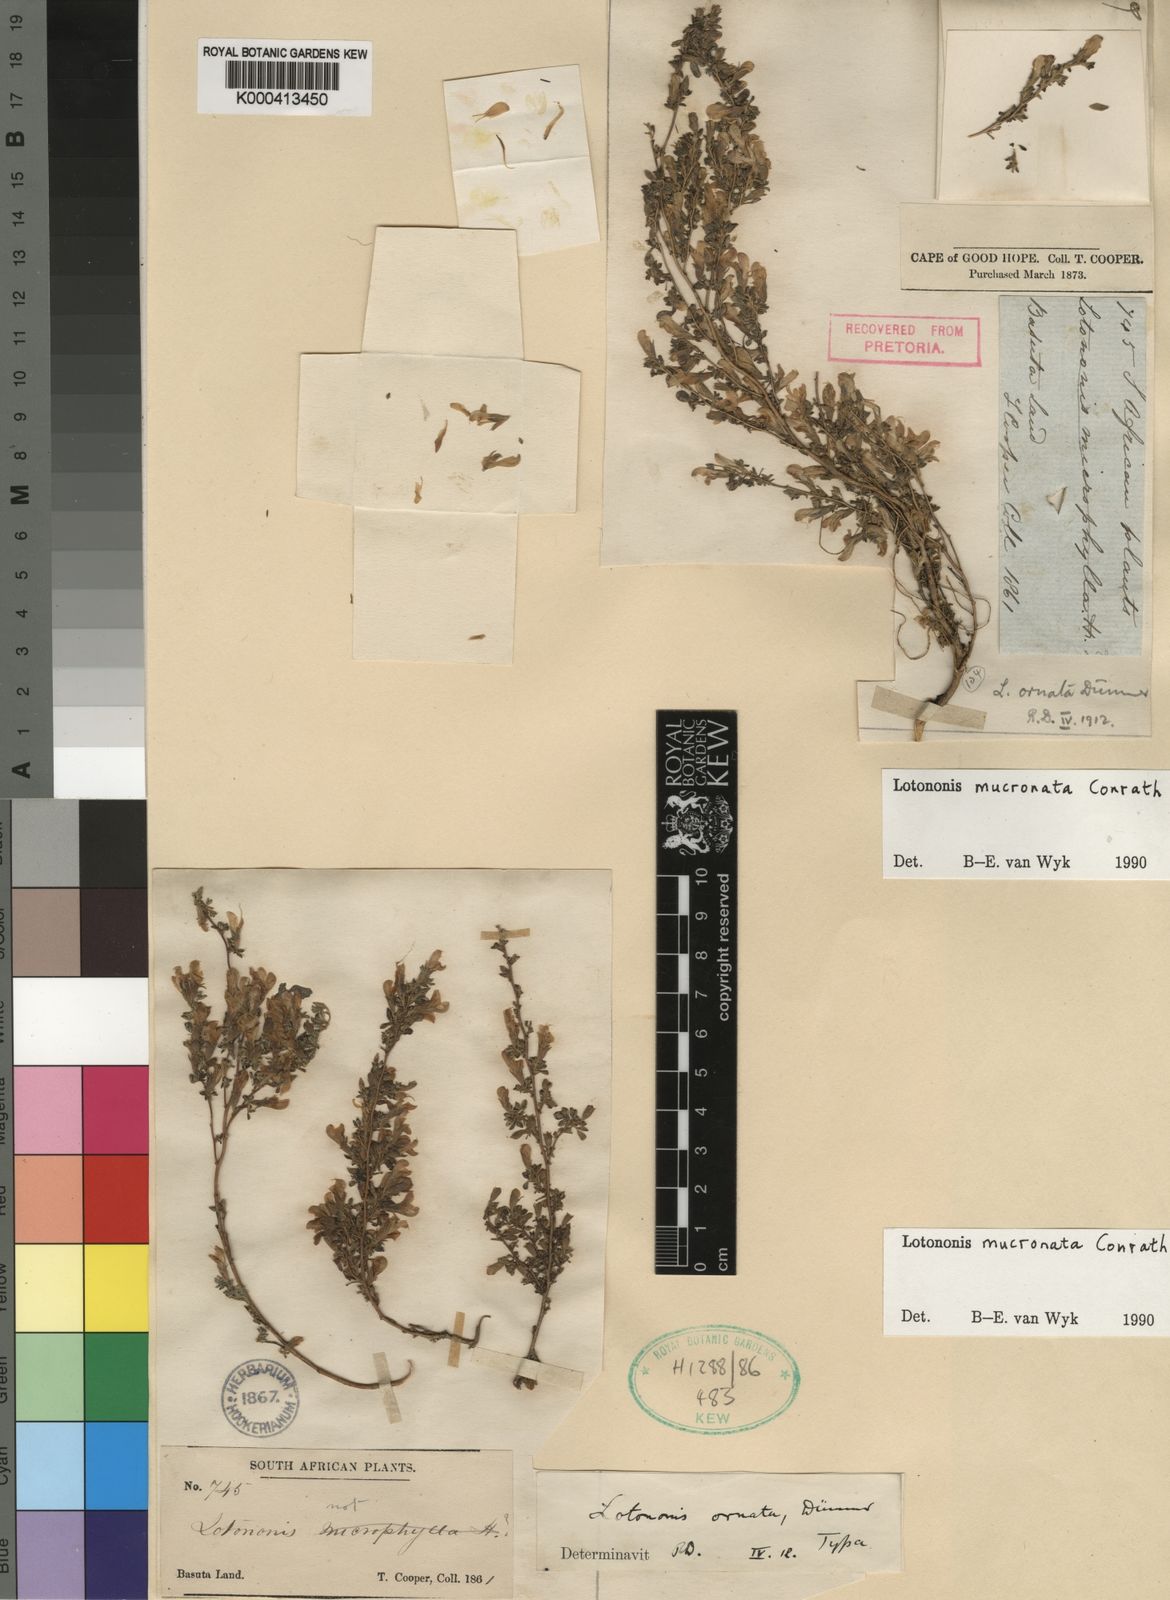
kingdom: Plantae
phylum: Tracheophyta
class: Magnoliopsida
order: Fabales
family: Fabaceae
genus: Leobordea
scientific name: Leobordea mucronata
